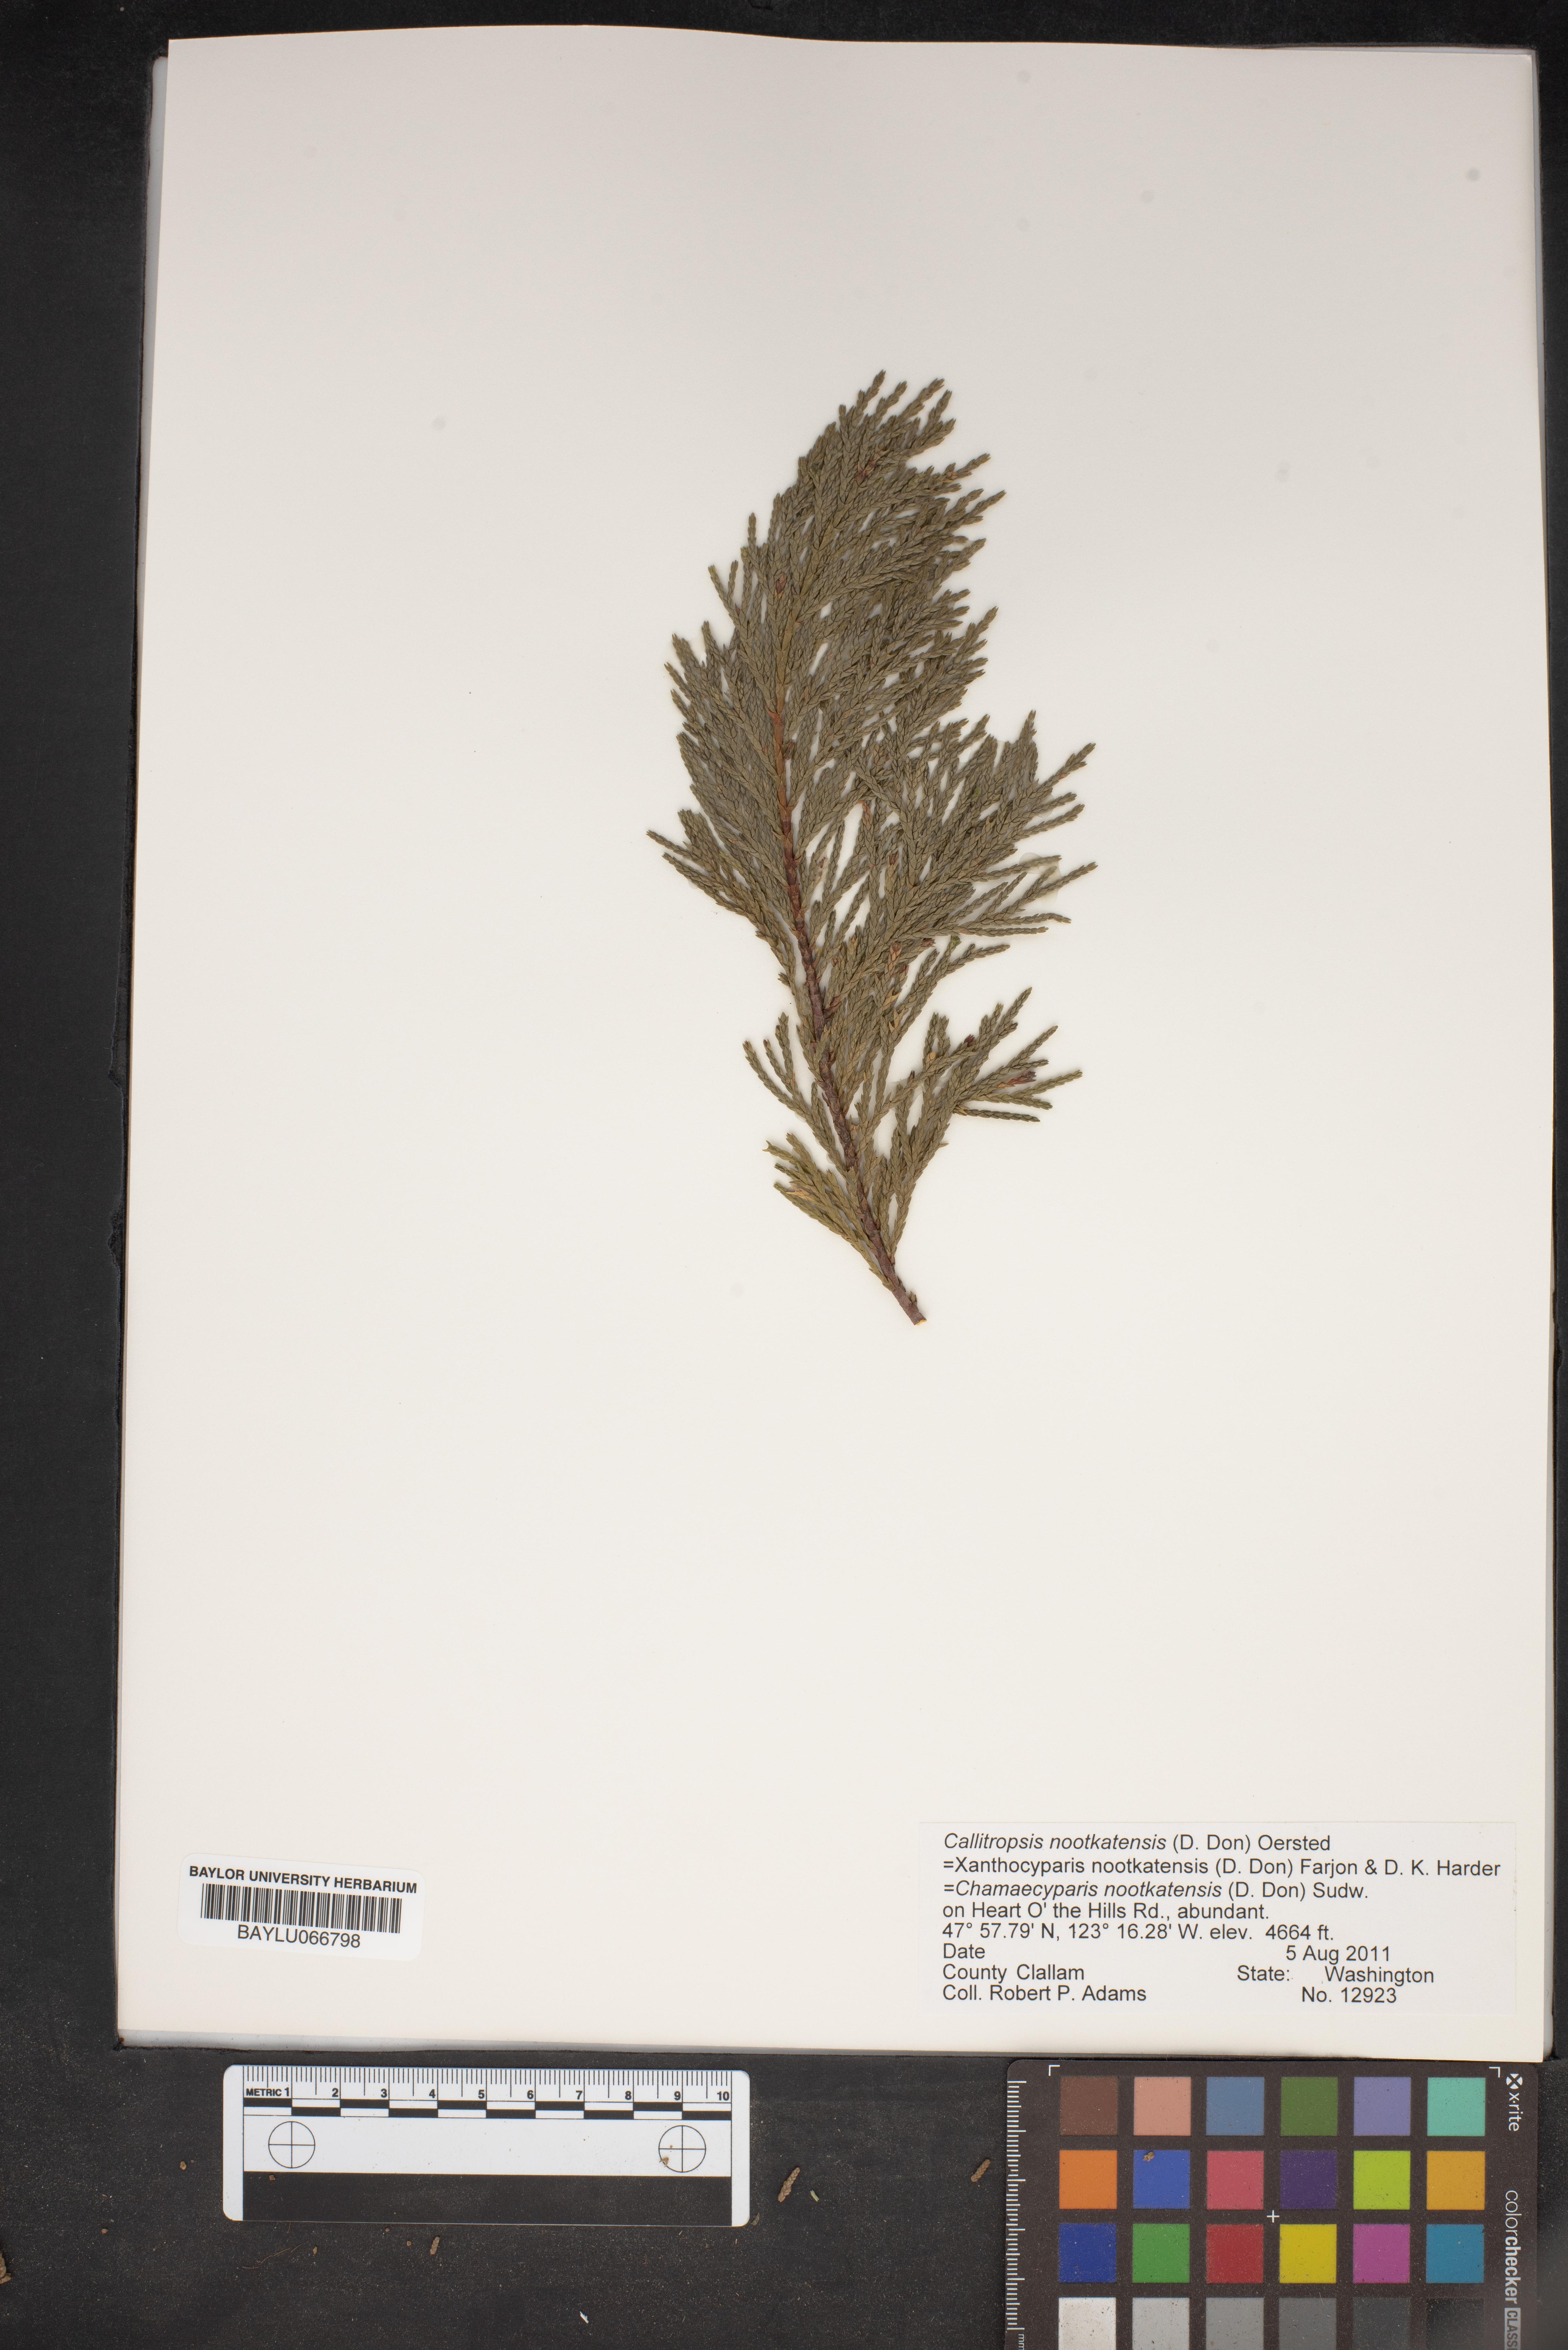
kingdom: Plantae
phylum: Tracheophyta
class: Pinopsida
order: Pinales
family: Cupressaceae
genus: Xanthocyparis
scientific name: Xanthocyparis nootkatensis
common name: Nootka cypress
